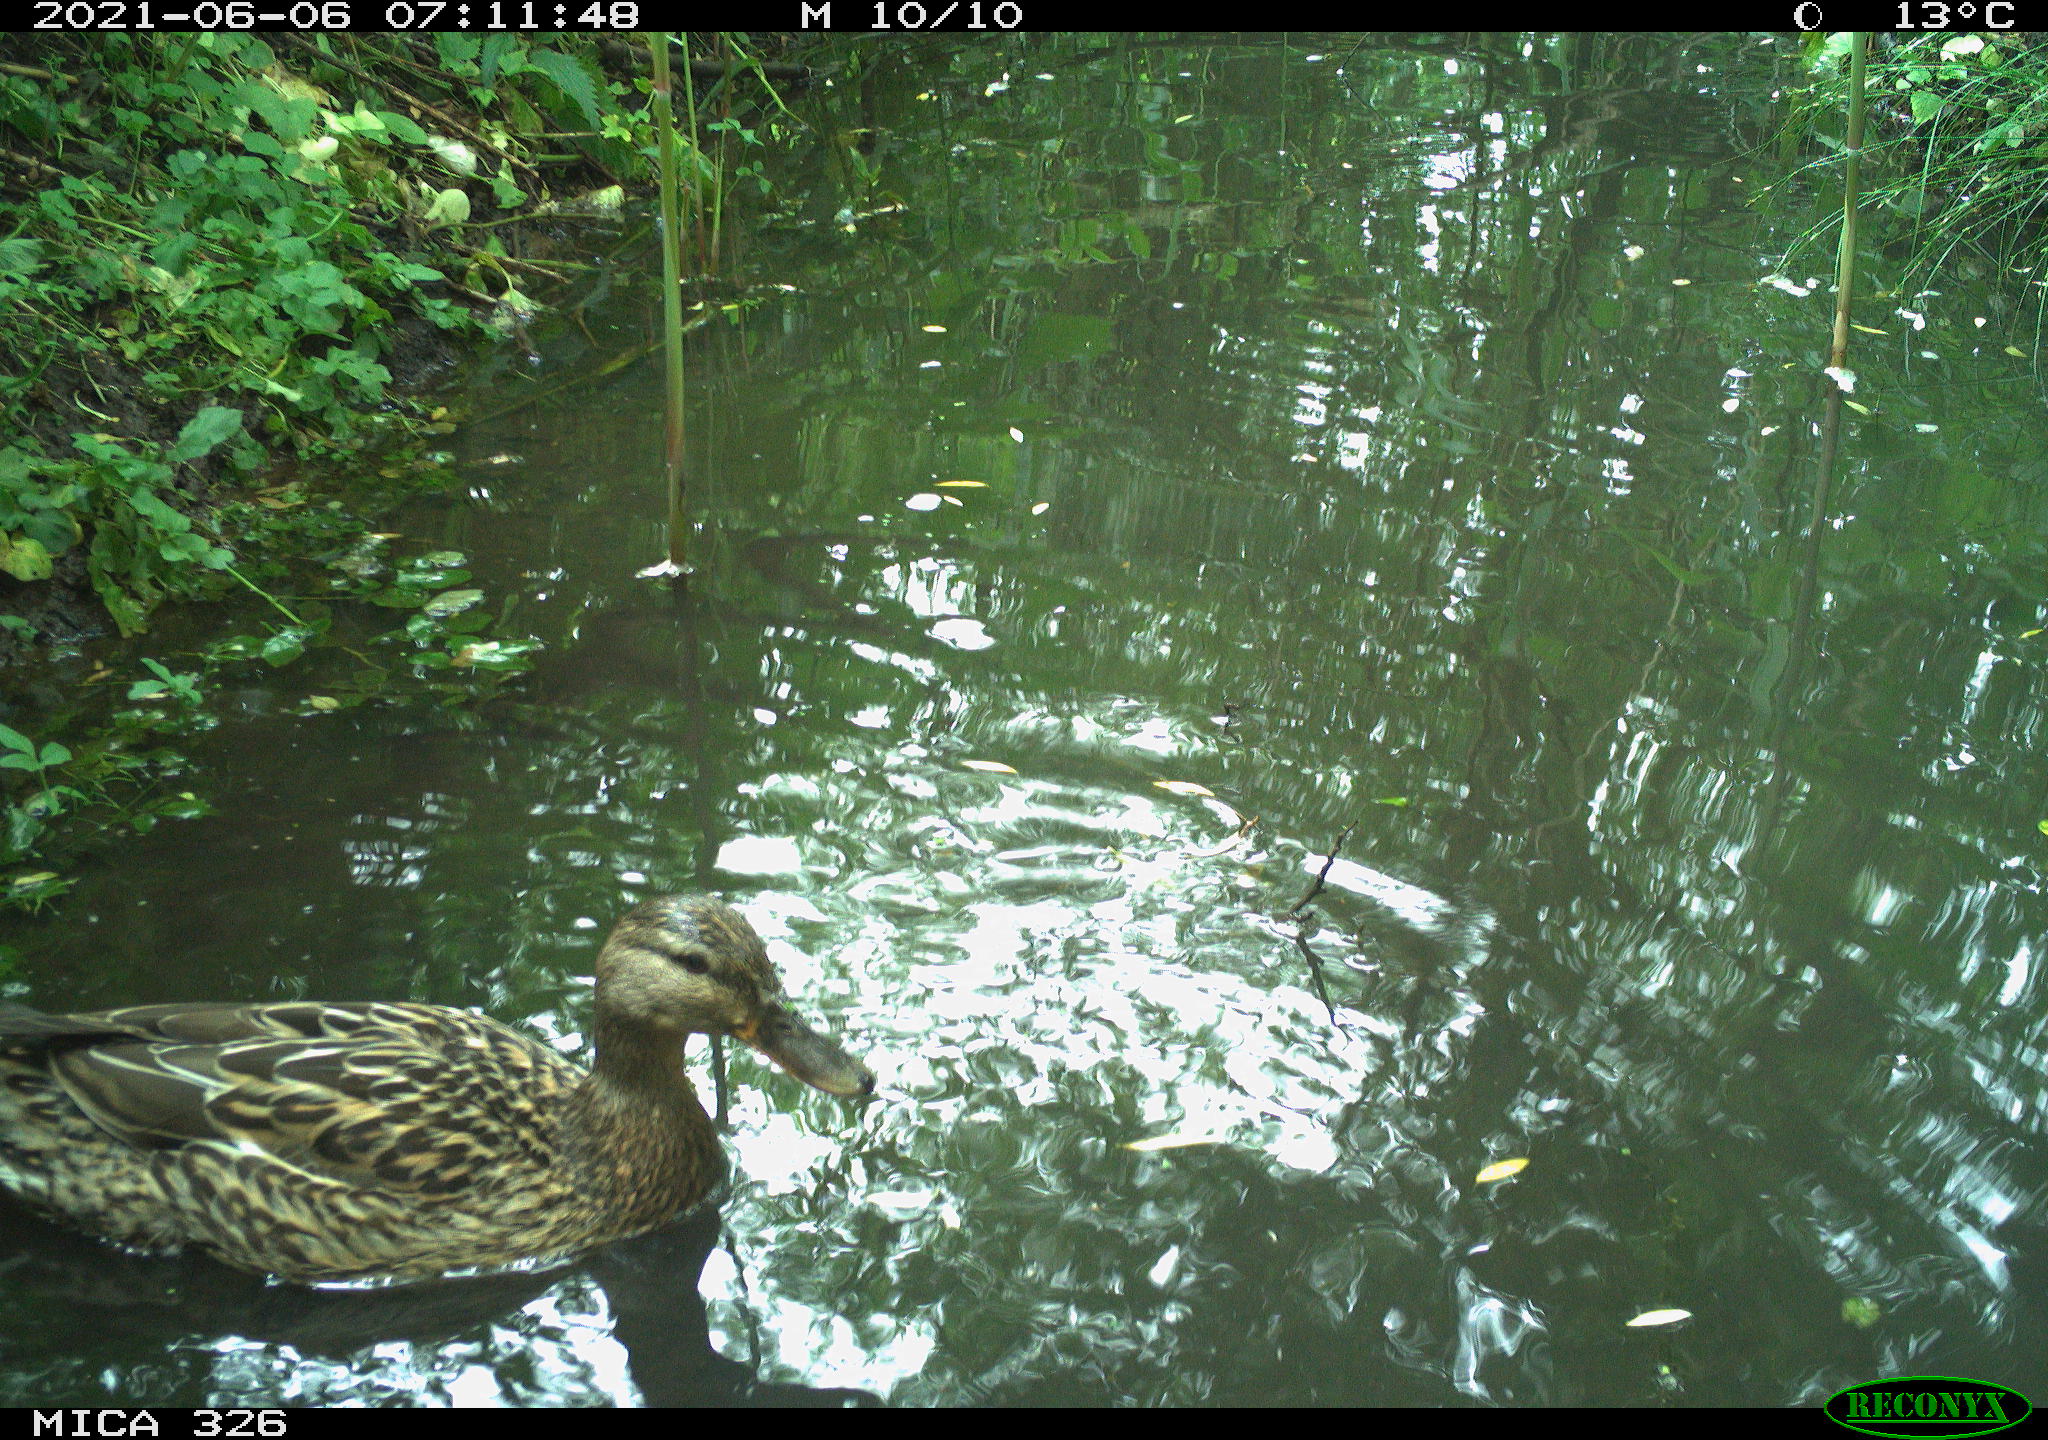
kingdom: Animalia
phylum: Chordata
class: Aves
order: Anseriformes
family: Anatidae
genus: Anas
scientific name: Anas platyrhynchos
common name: Mallard
